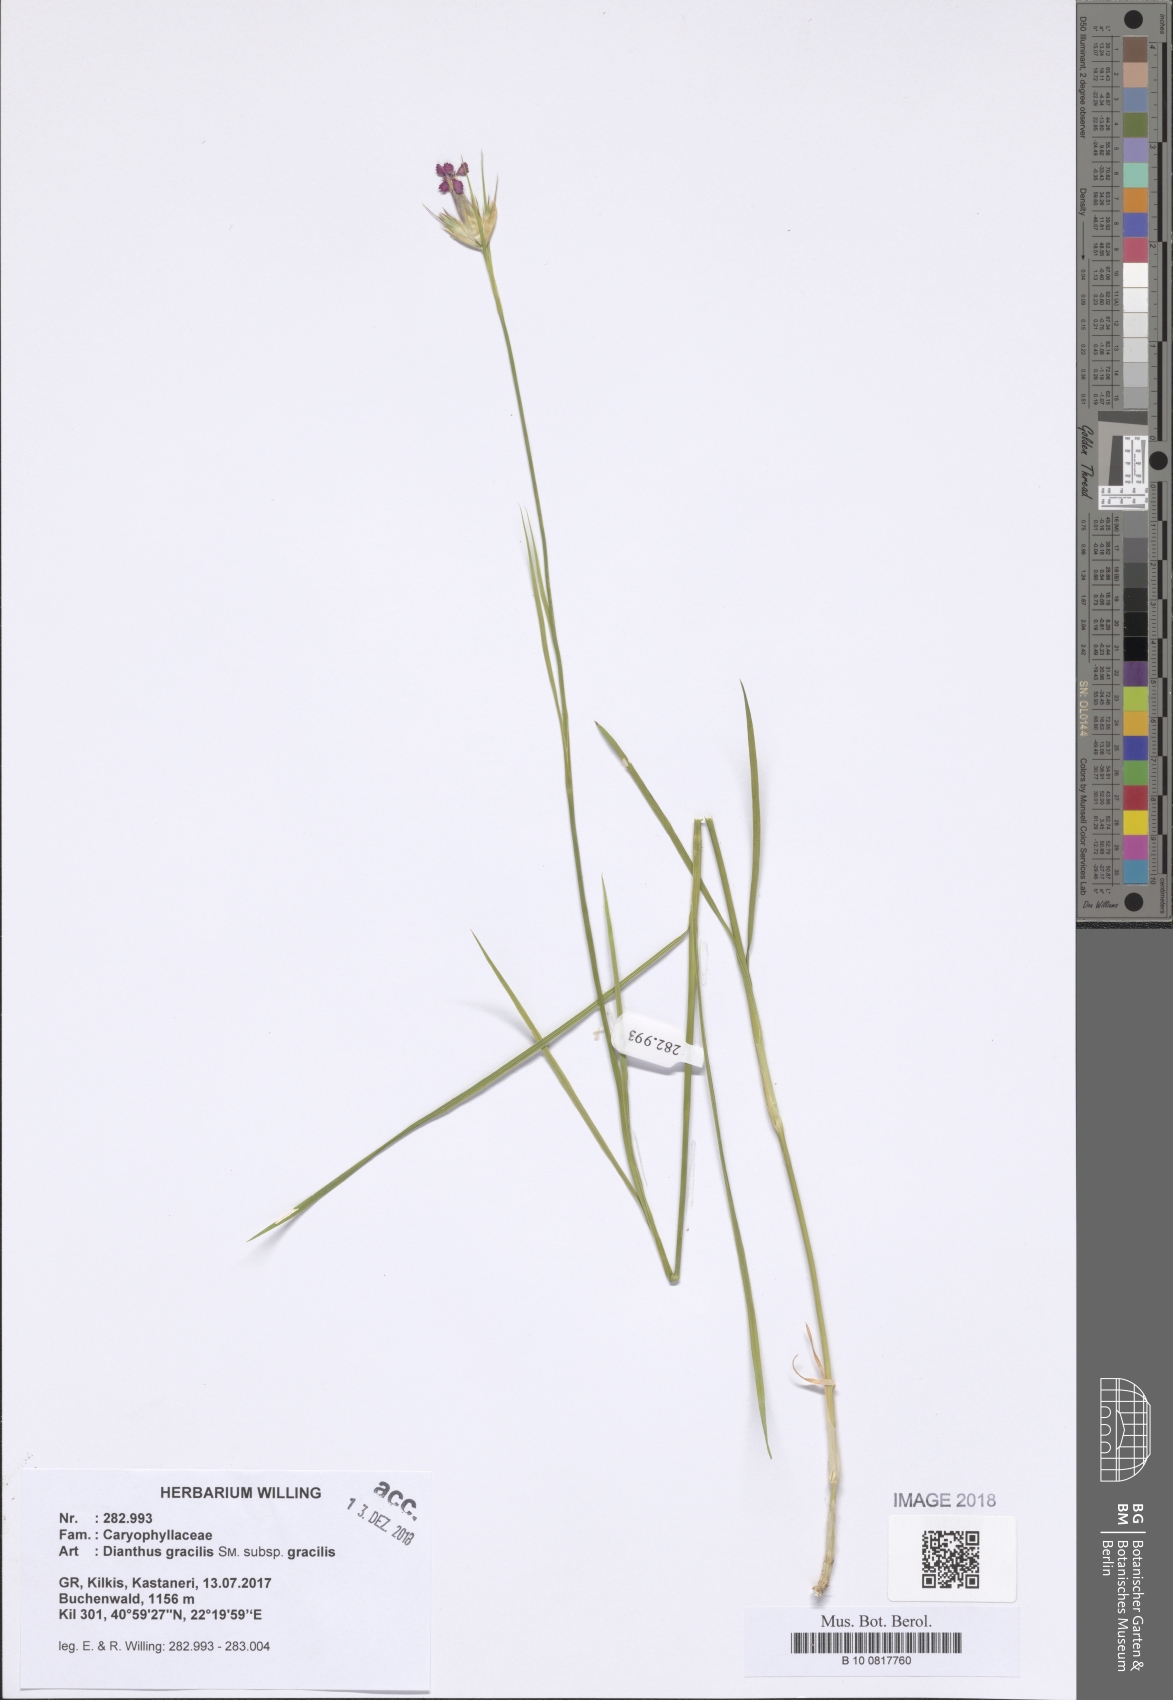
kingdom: Plantae
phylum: Tracheophyta
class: Magnoliopsida
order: Caryophyllales
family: Caryophyllaceae
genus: Dianthus
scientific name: Dianthus gracilis
